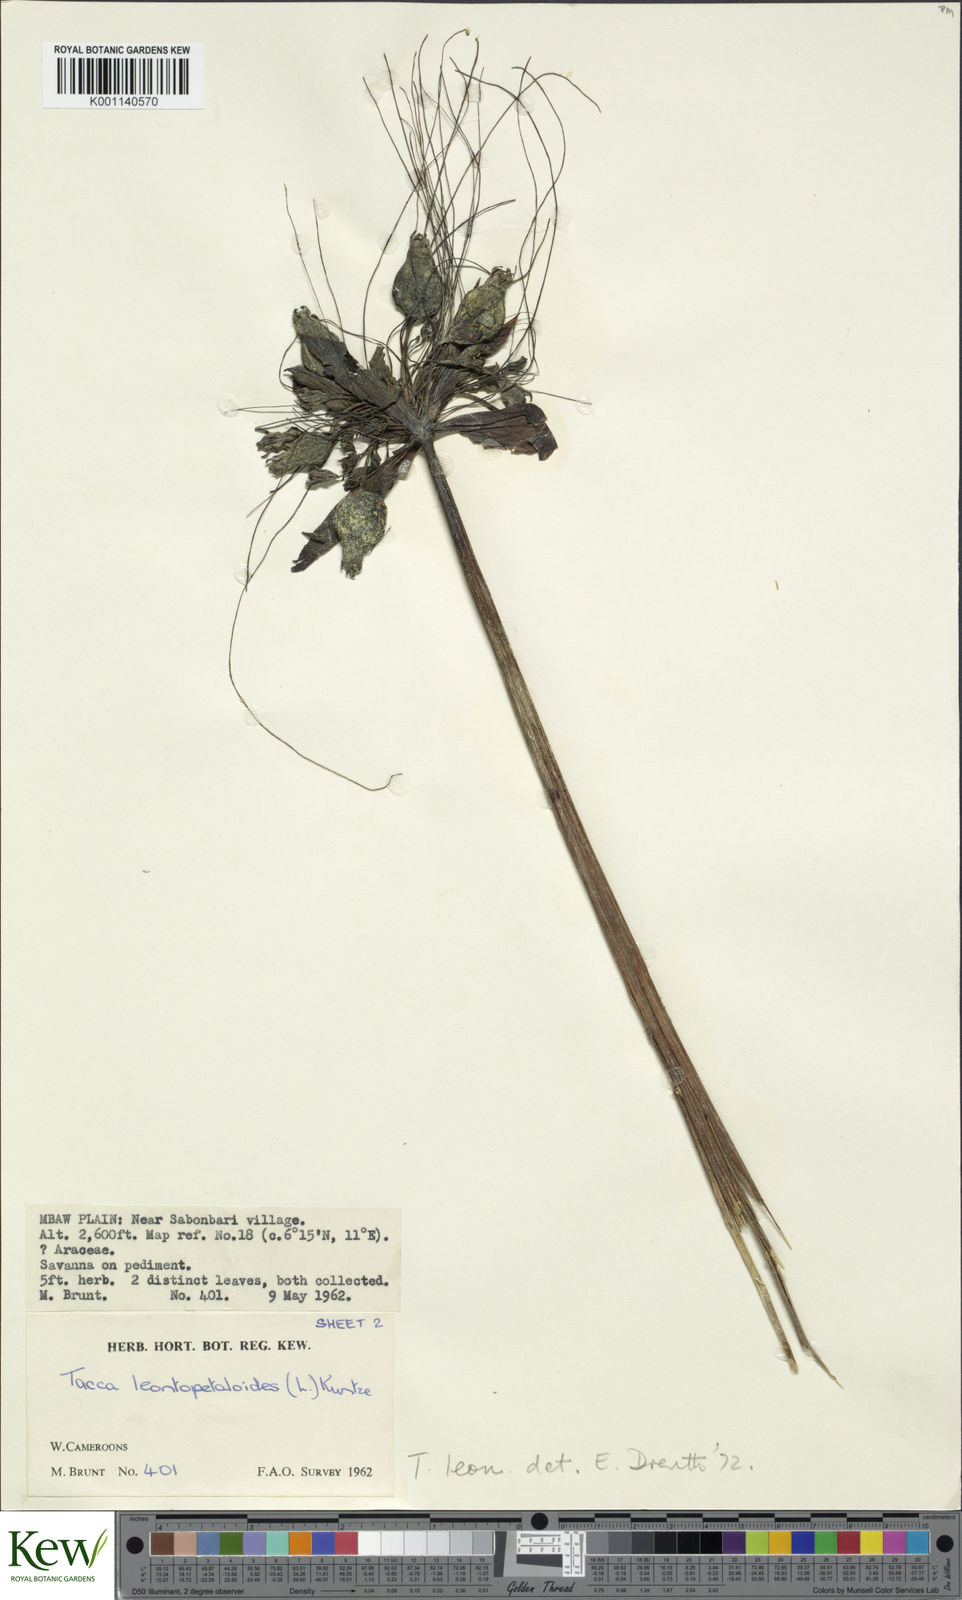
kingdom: Plantae
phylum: Tracheophyta
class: Liliopsida
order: Dioscoreales
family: Dioscoreaceae
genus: Tacca
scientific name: Tacca leontopetaloides
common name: Arrowroot
